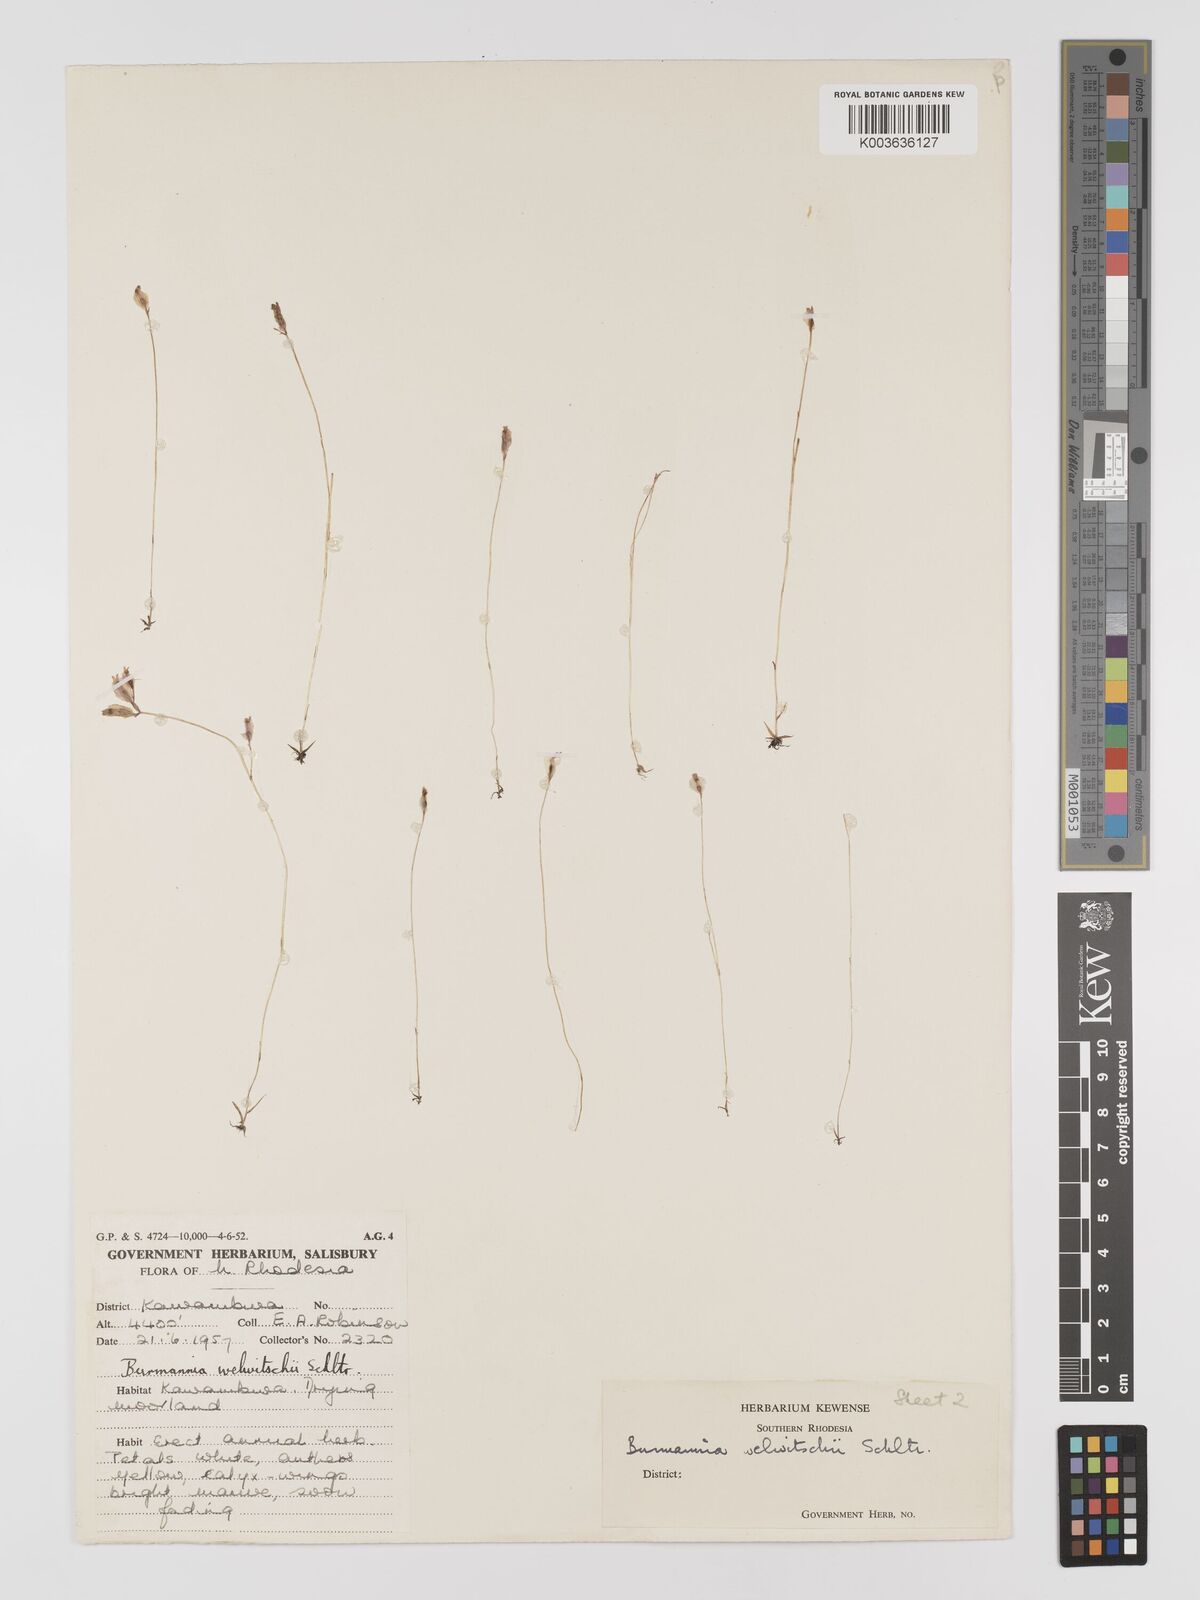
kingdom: Plantae
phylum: Tracheophyta
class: Liliopsida
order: Dioscoreales
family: Burmanniaceae
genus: Burmannia
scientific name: Burmannia madagascariensis
